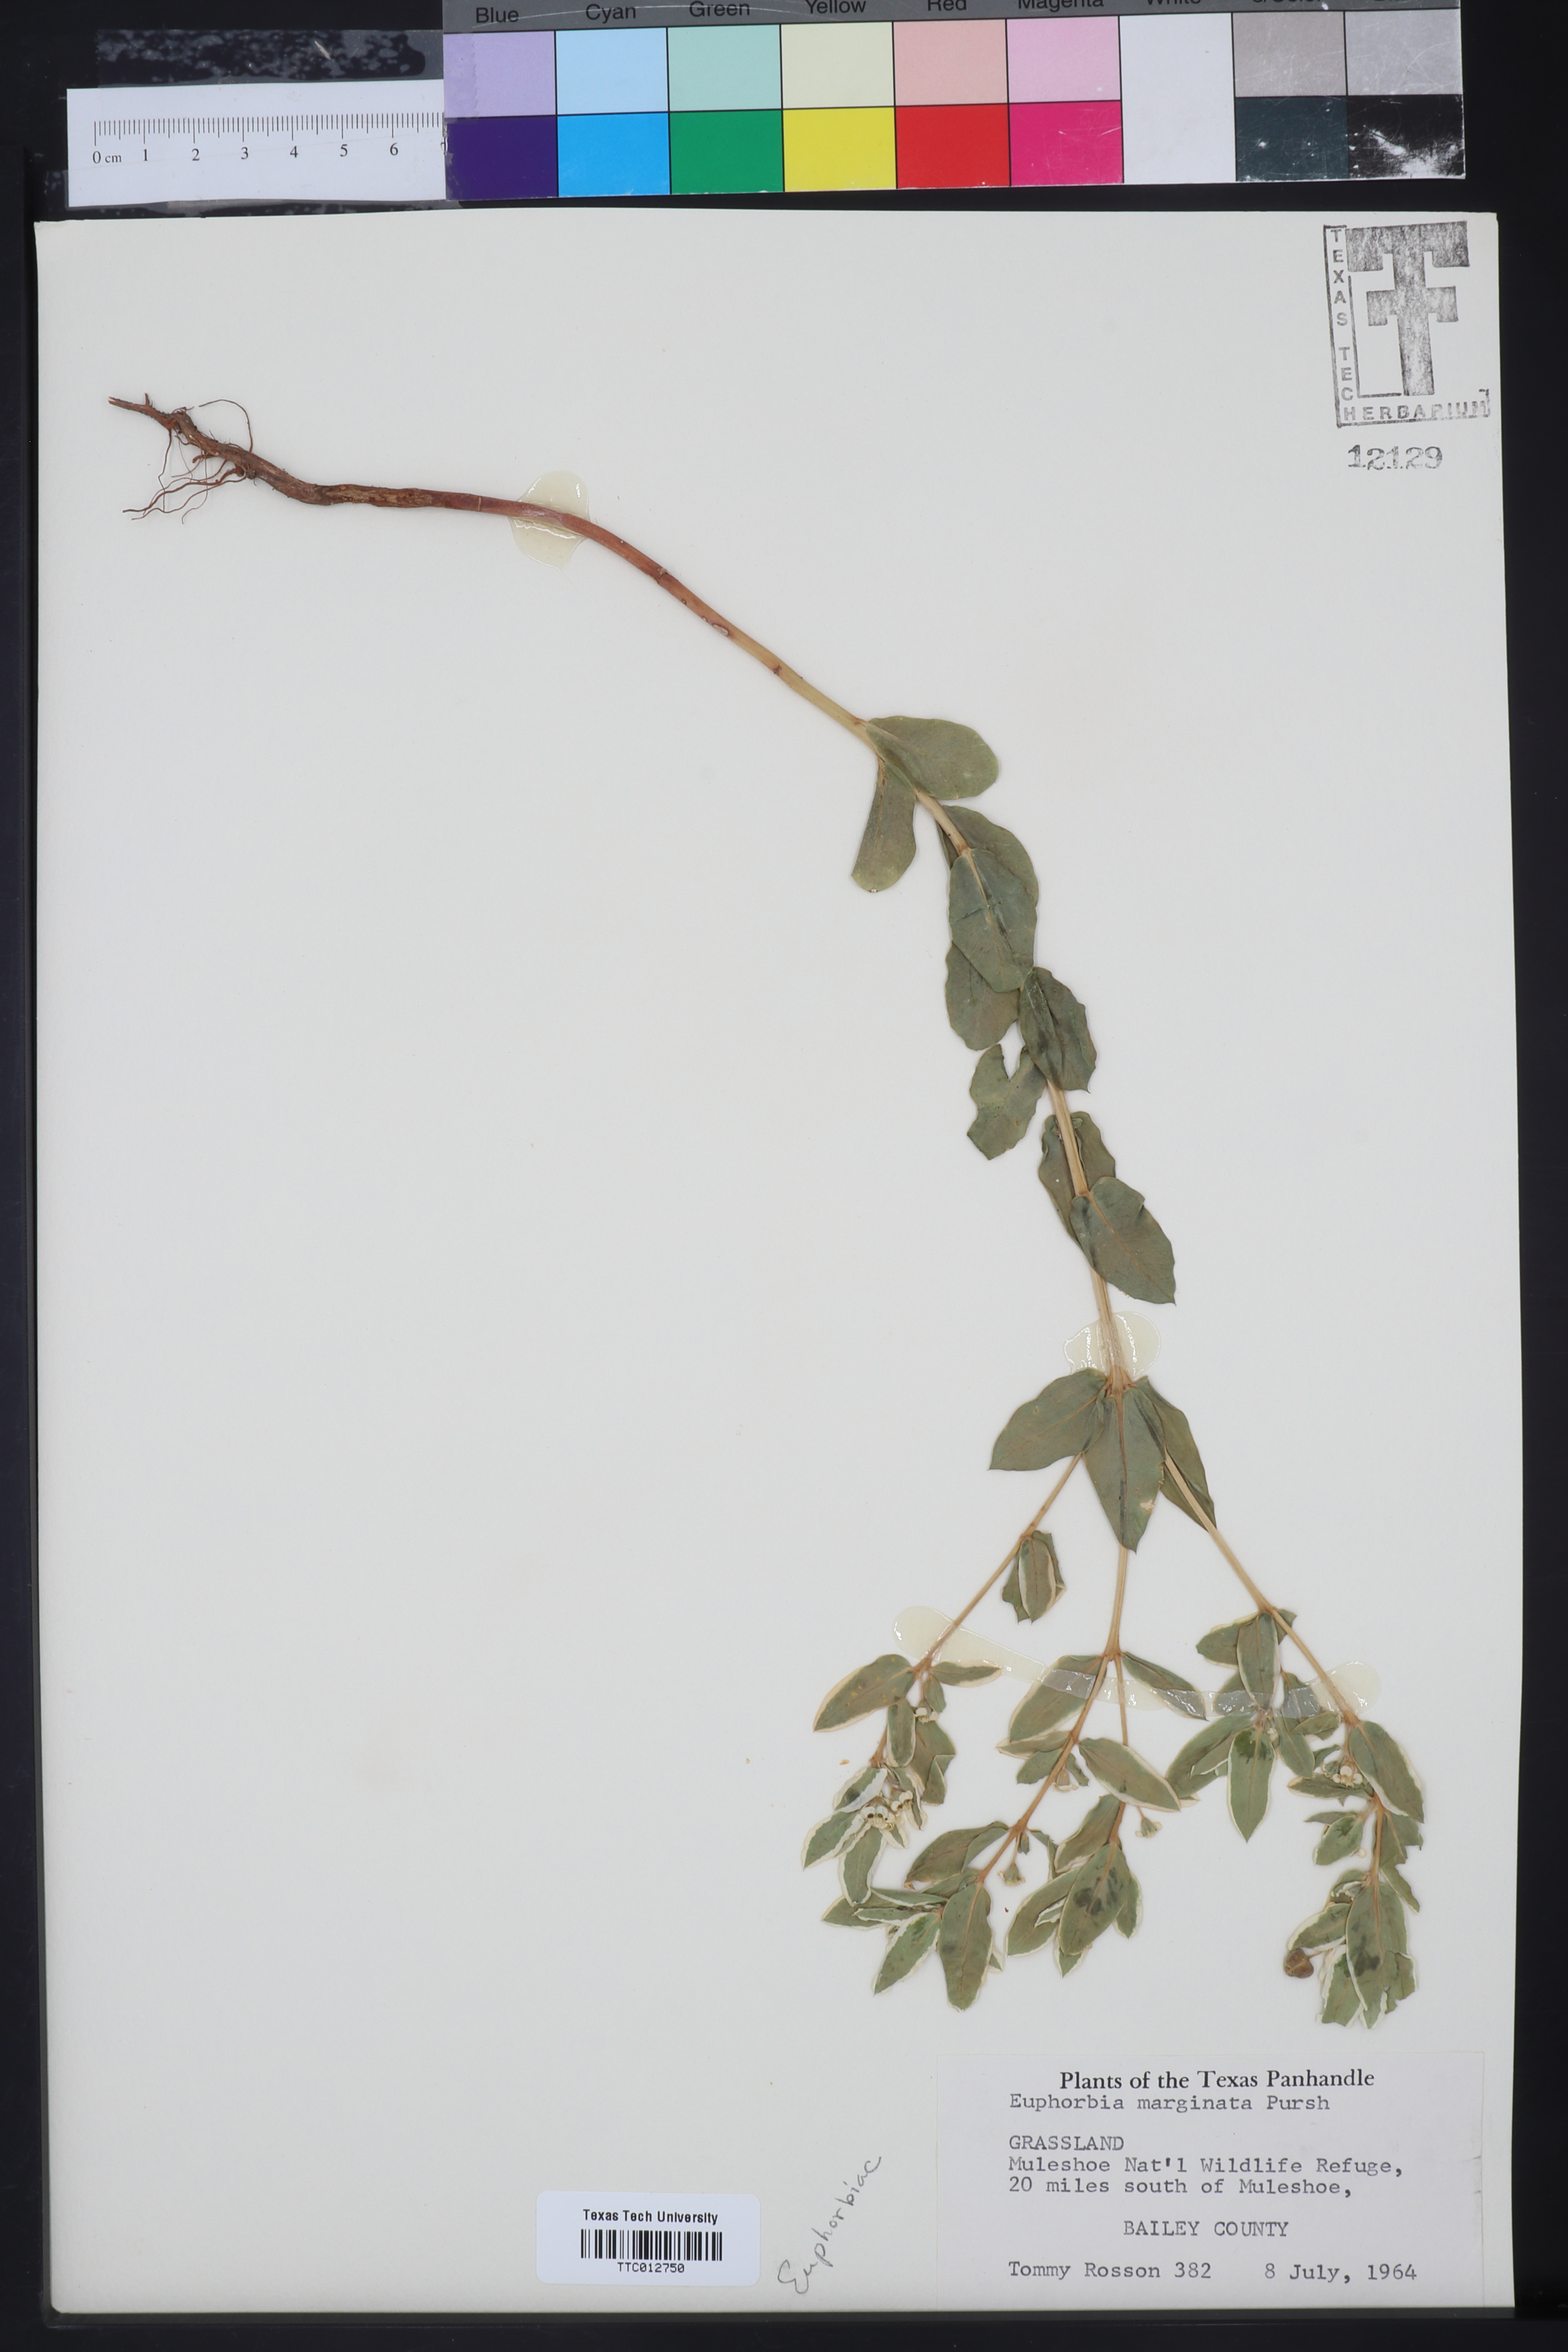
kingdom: Plantae
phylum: Tracheophyta
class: Magnoliopsida
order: Malpighiales
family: Euphorbiaceae
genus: Euphorbia
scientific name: Euphorbia marginata
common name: Ghostweed
